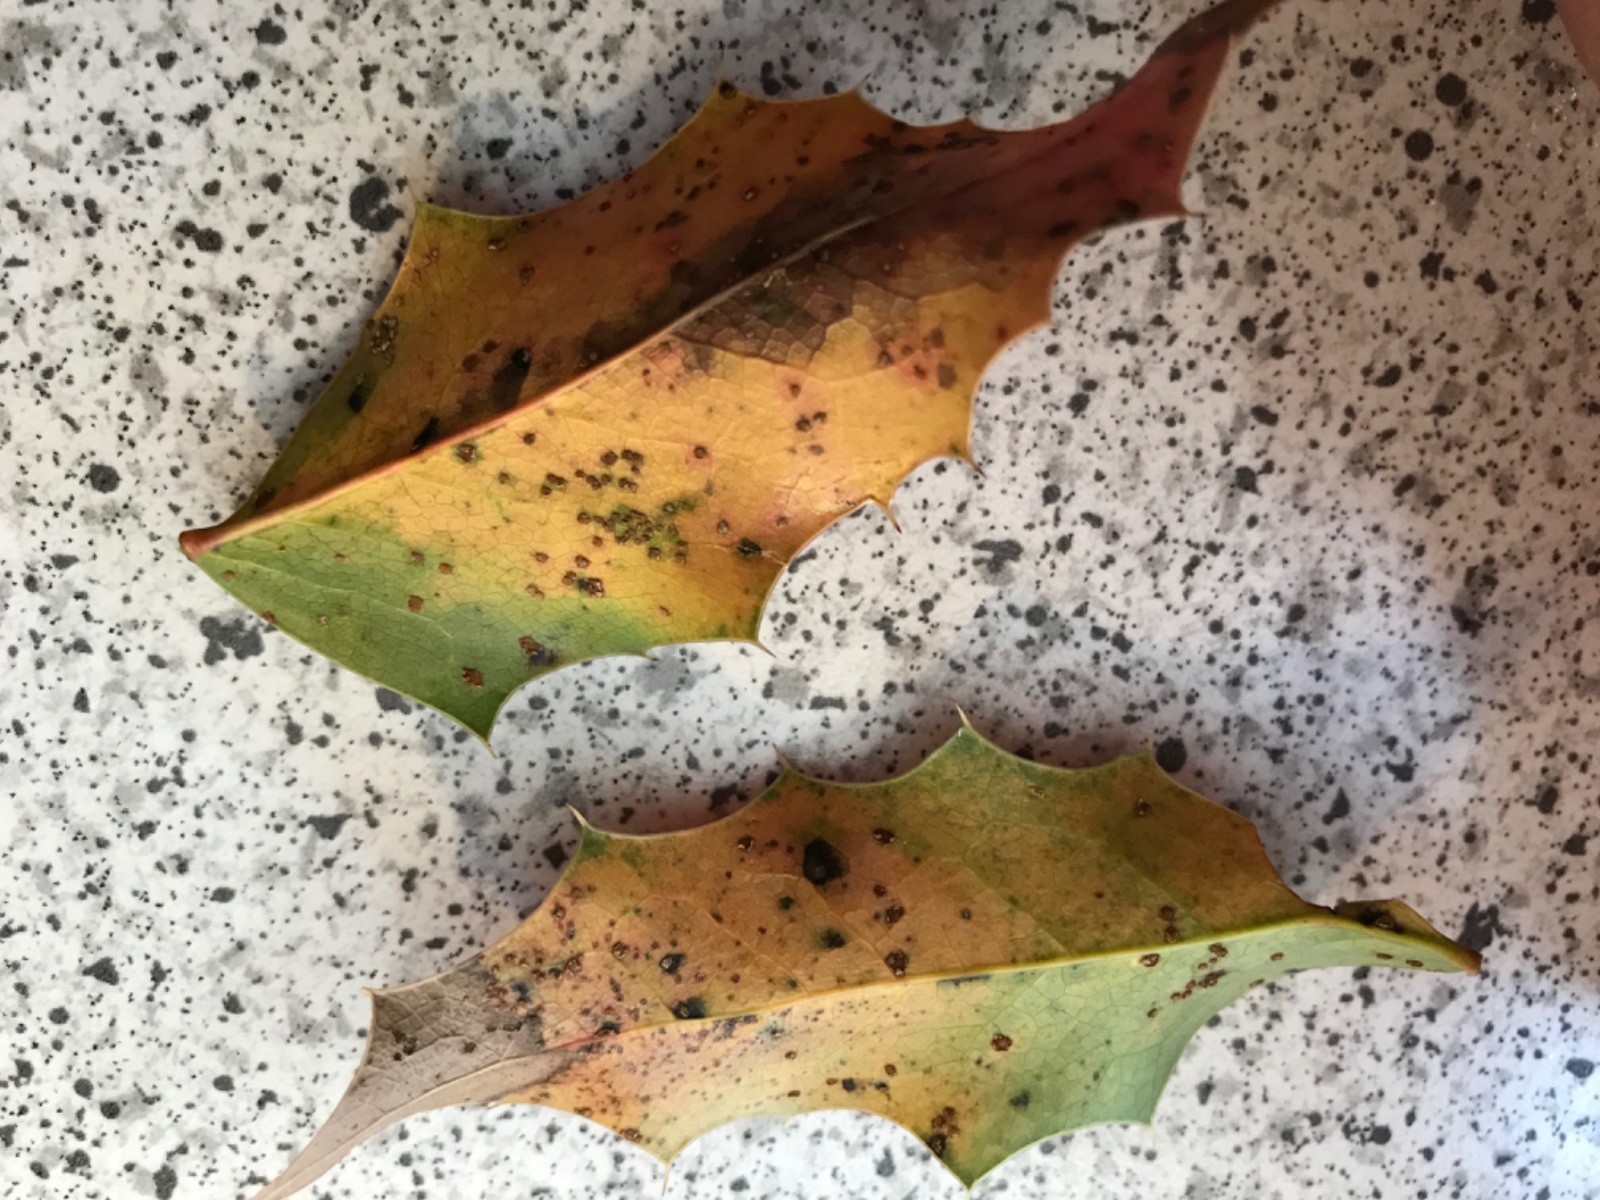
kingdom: Fungi
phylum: Basidiomycota
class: Pucciniomycetes
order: Pucciniales
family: Pucciniaceae
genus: Cumminsiella
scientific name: Cumminsiella mirabilissima
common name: mahonierust
